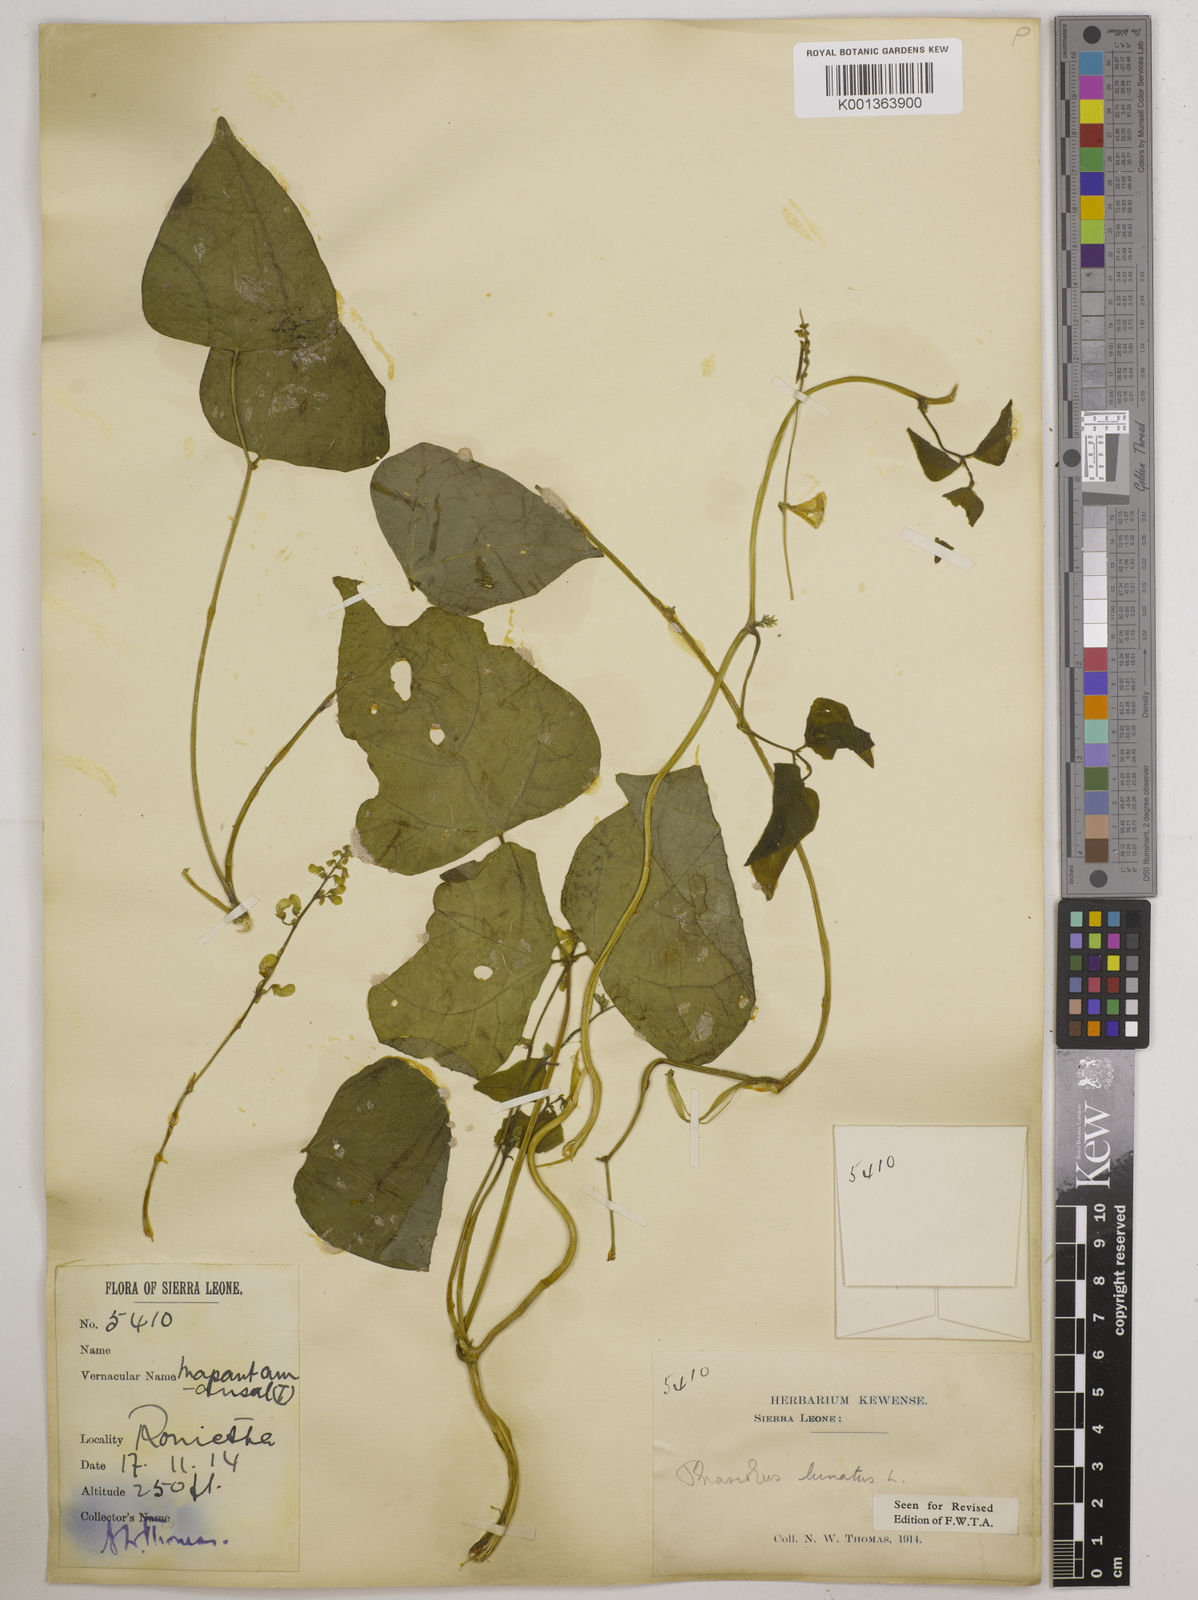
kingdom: Plantae
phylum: Tracheophyta
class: Magnoliopsida
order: Fabales
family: Fabaceae
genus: Phaseolus
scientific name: Phaseolus lunatus
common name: Sieva bean
